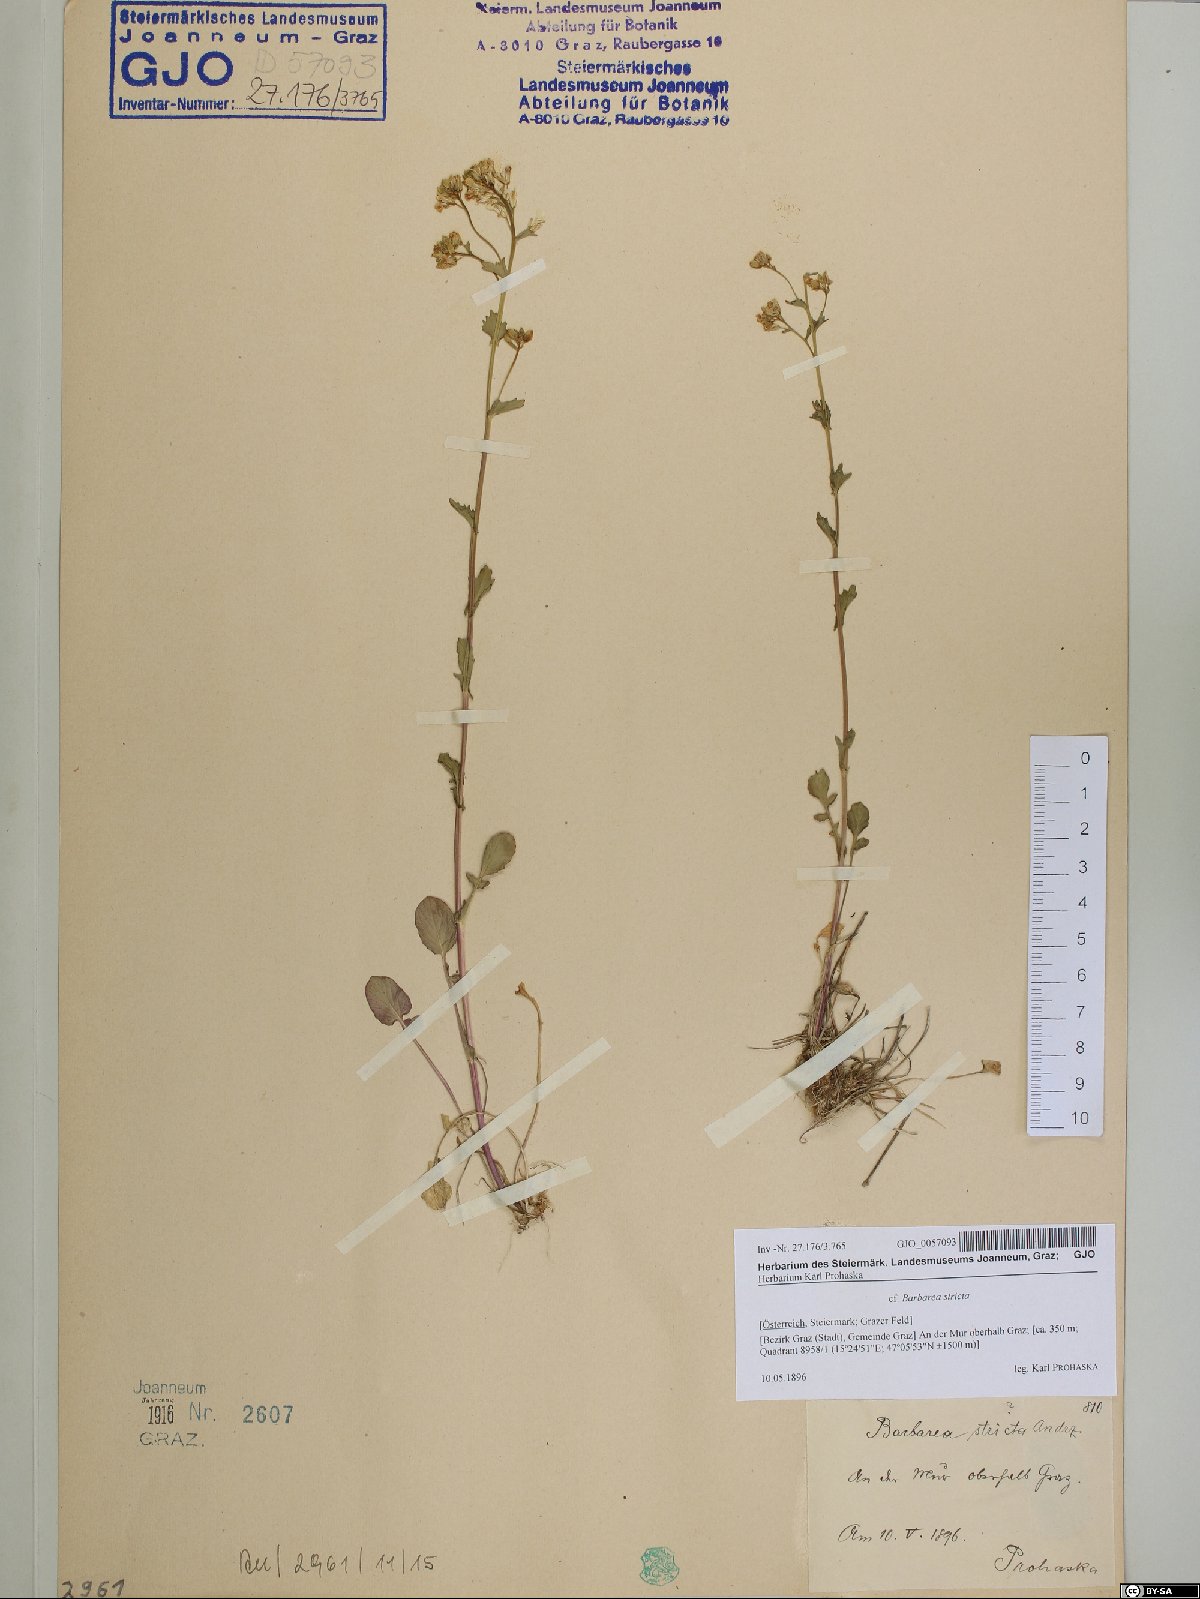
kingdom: Plantae
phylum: Tracheophyta
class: Magnoliopsida
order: Brassicales
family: Brassicaceae
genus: Barbarea
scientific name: Barbarea stricta
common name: Small-flowered winter-cress
